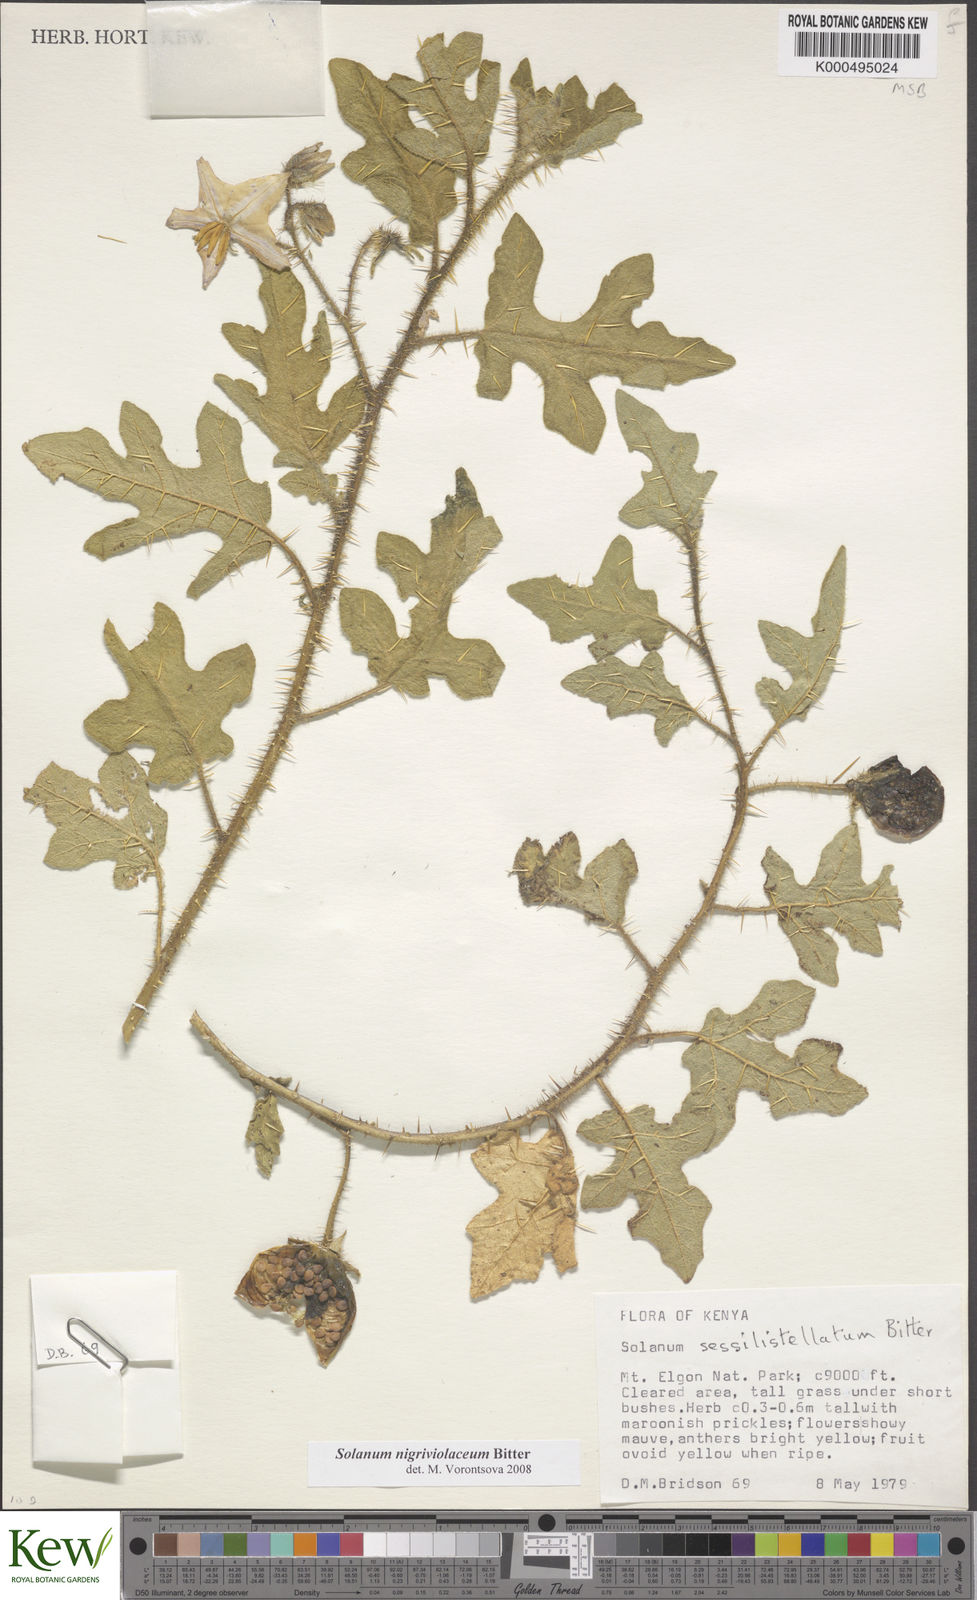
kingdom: Plantae
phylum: Tracheophyta
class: Magnoliopsida
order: Solanales
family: Solanaceae
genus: Solanum
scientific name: Solanum nigriviolaceum
